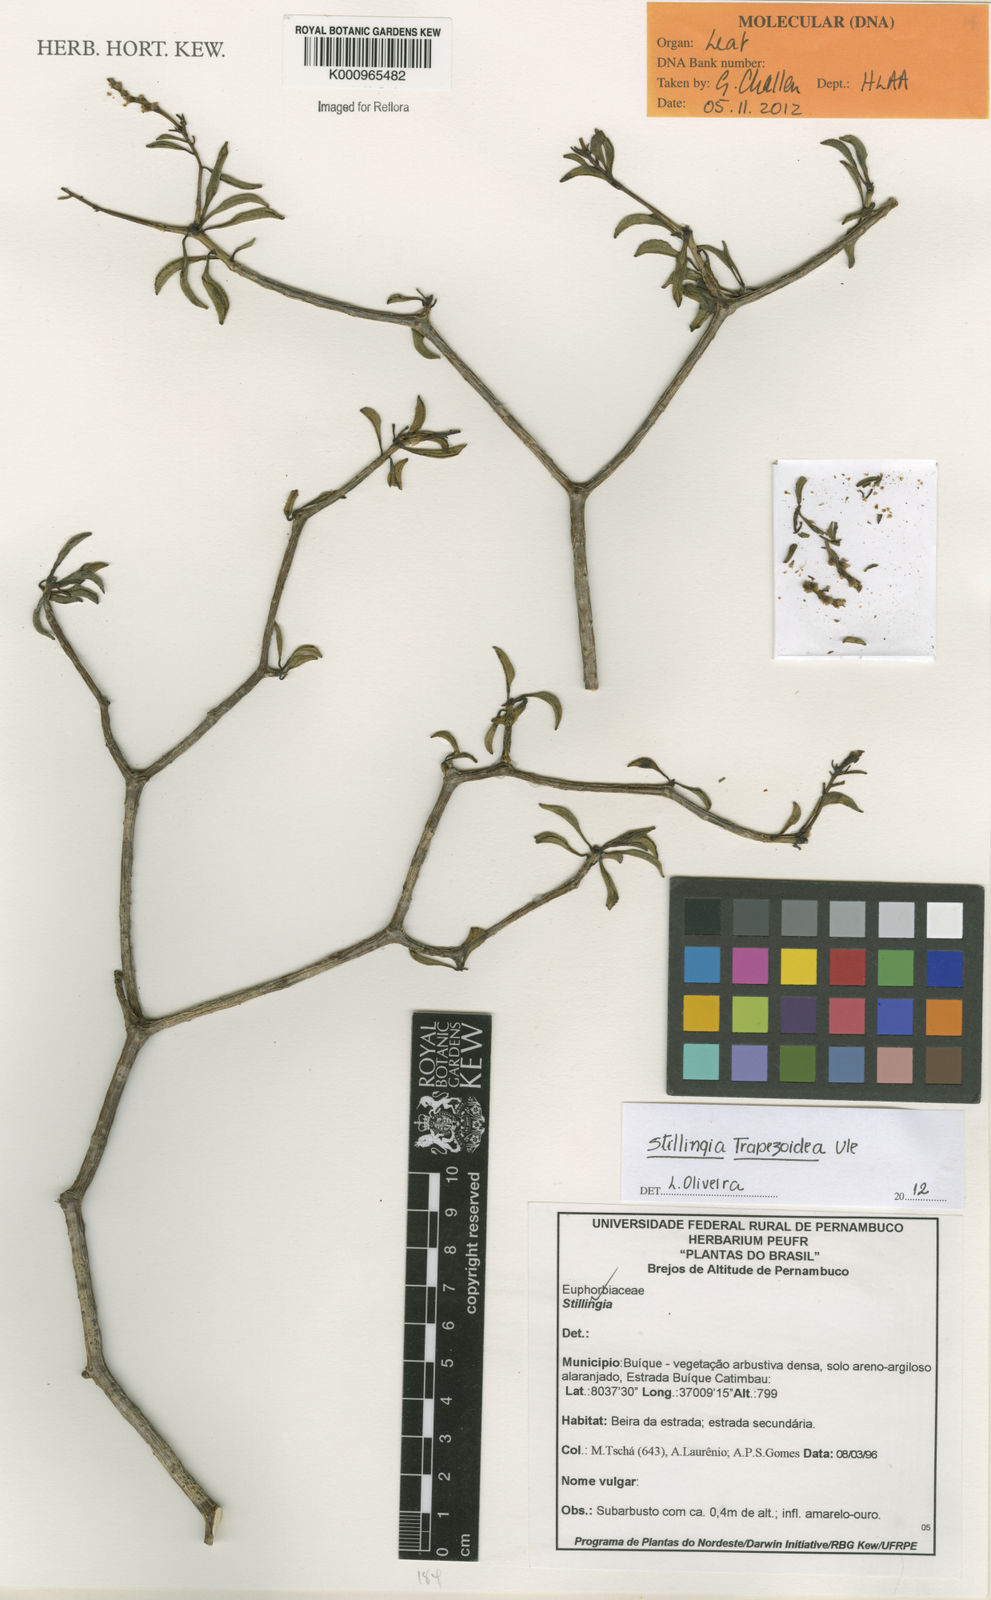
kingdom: Plantae
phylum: Tracheophyta
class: Magnoliopsida
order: Malpighiales
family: Euphorbiaceae
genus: Stillingia
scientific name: Stillingia trapezoidea
